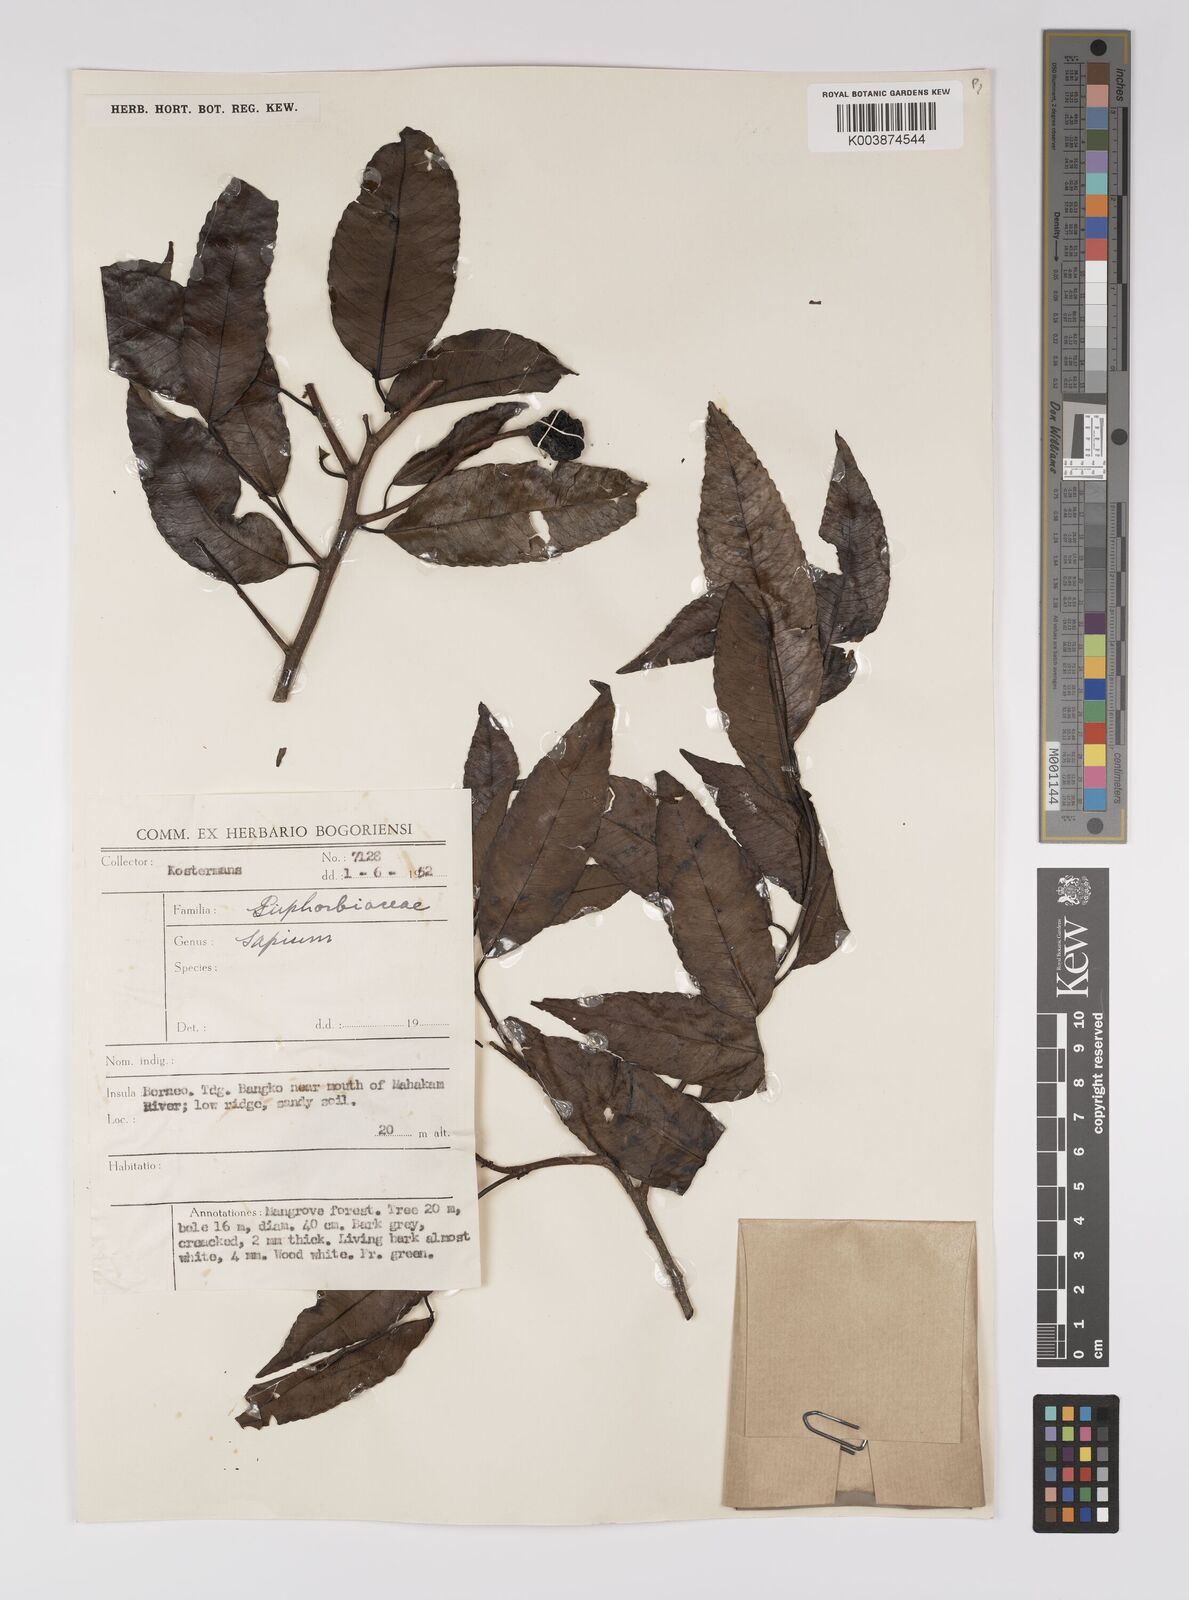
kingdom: Plantae
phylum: Tracheophyta
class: Magnoliopsida
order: Malpighiales
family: Euphorbiaceae
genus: Shirakiopsis
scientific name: Shirakiopsis indica
